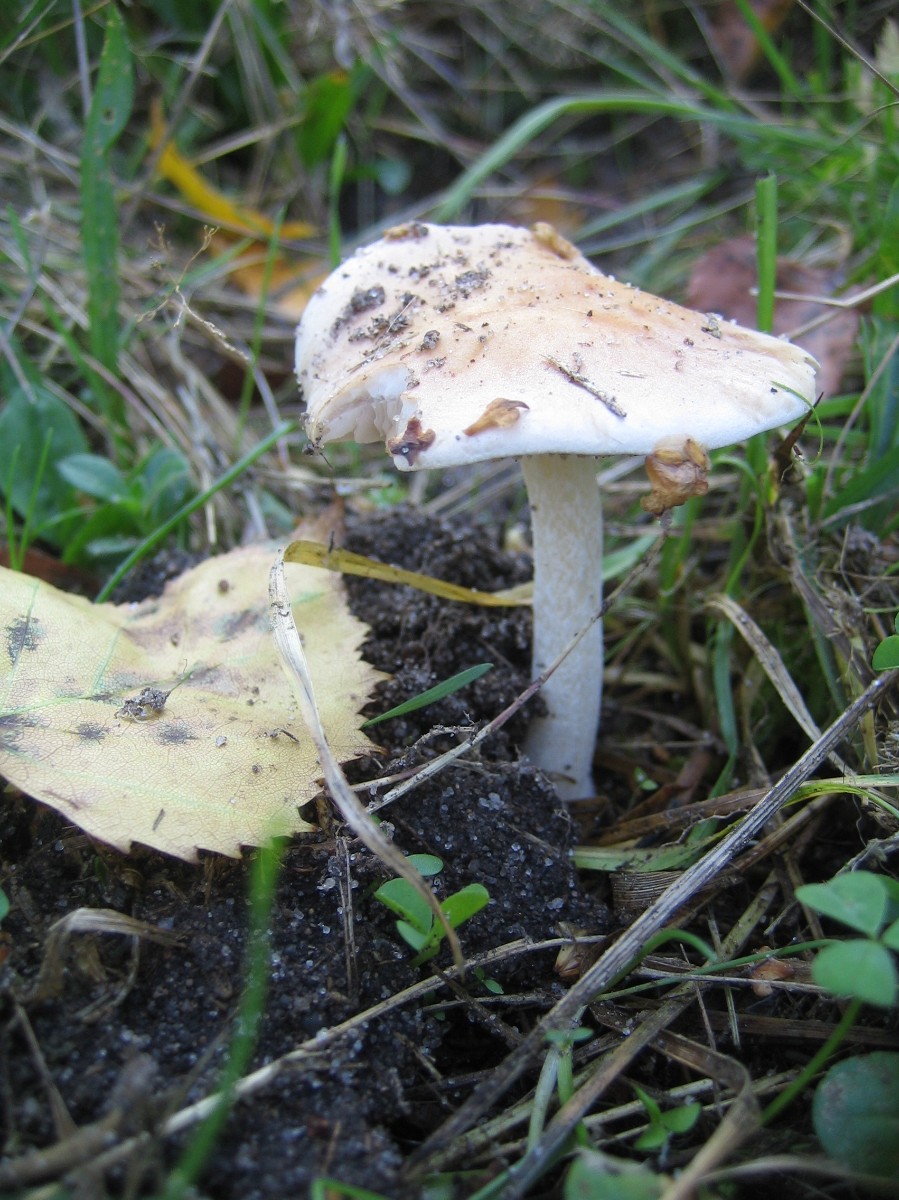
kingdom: Fungi
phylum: Basidiomycota
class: Agaricomycetes
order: Agaricales
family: Hymenogastraceae
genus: Hebeloma
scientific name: Hebeloma
